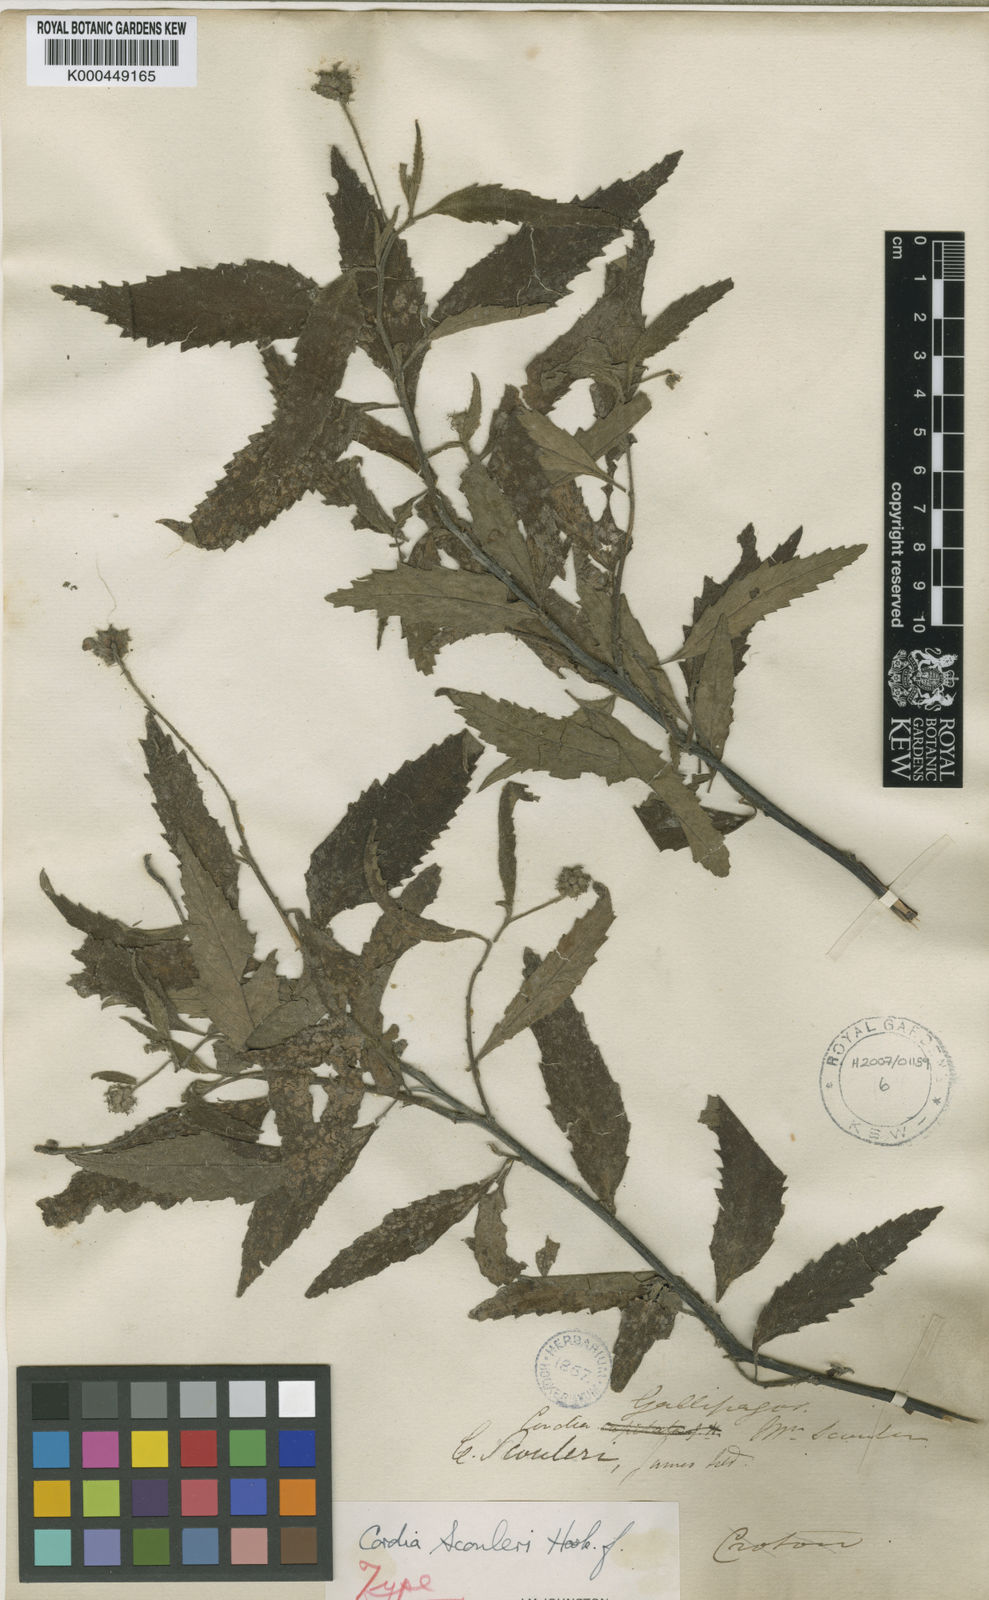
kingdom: Plantae
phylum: Tracheophyta
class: Magnoliopsida
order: Boraginales
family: Cordiaceae
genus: Varronia
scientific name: Varronia scouleri
